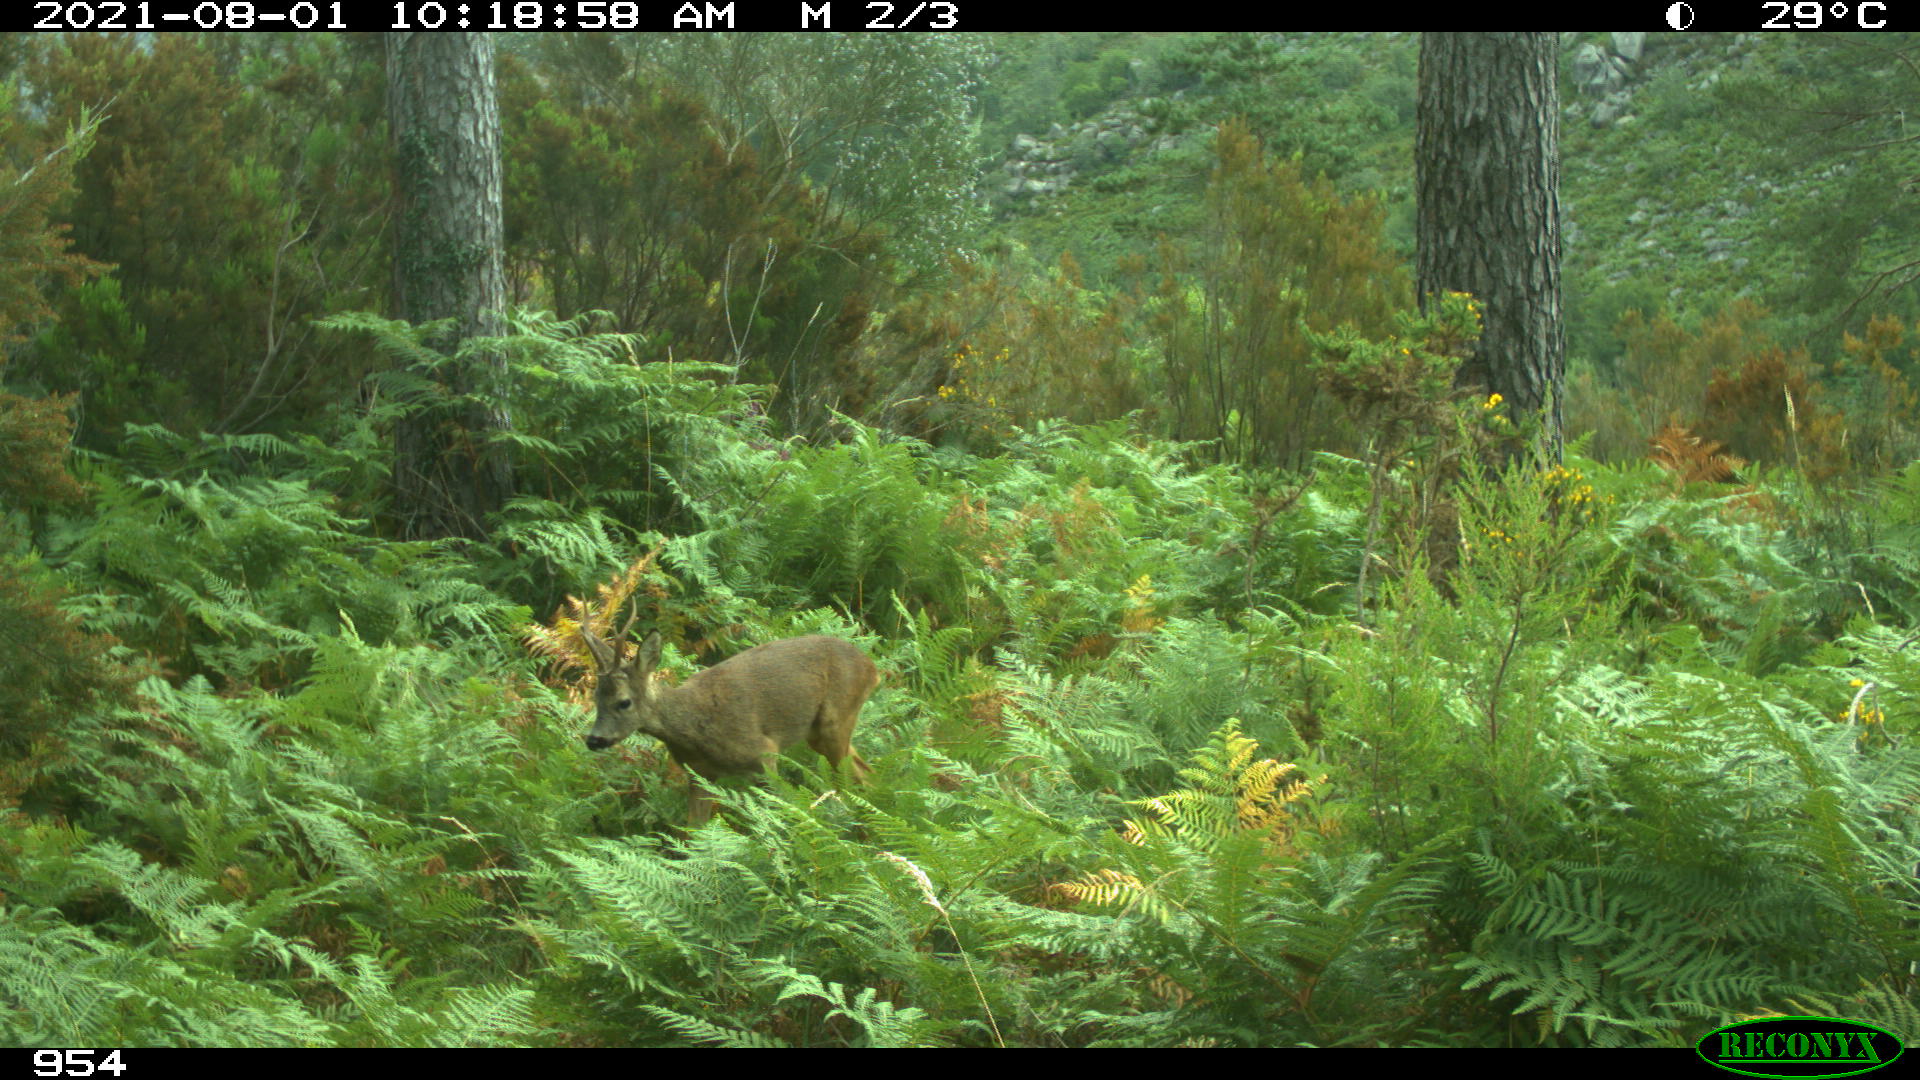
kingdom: Animalia
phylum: Chordata
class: Mammalia
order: Artiodactyla
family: Cervidae
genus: Capreolus
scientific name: Capreolus capreolus
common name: Western roe deer
